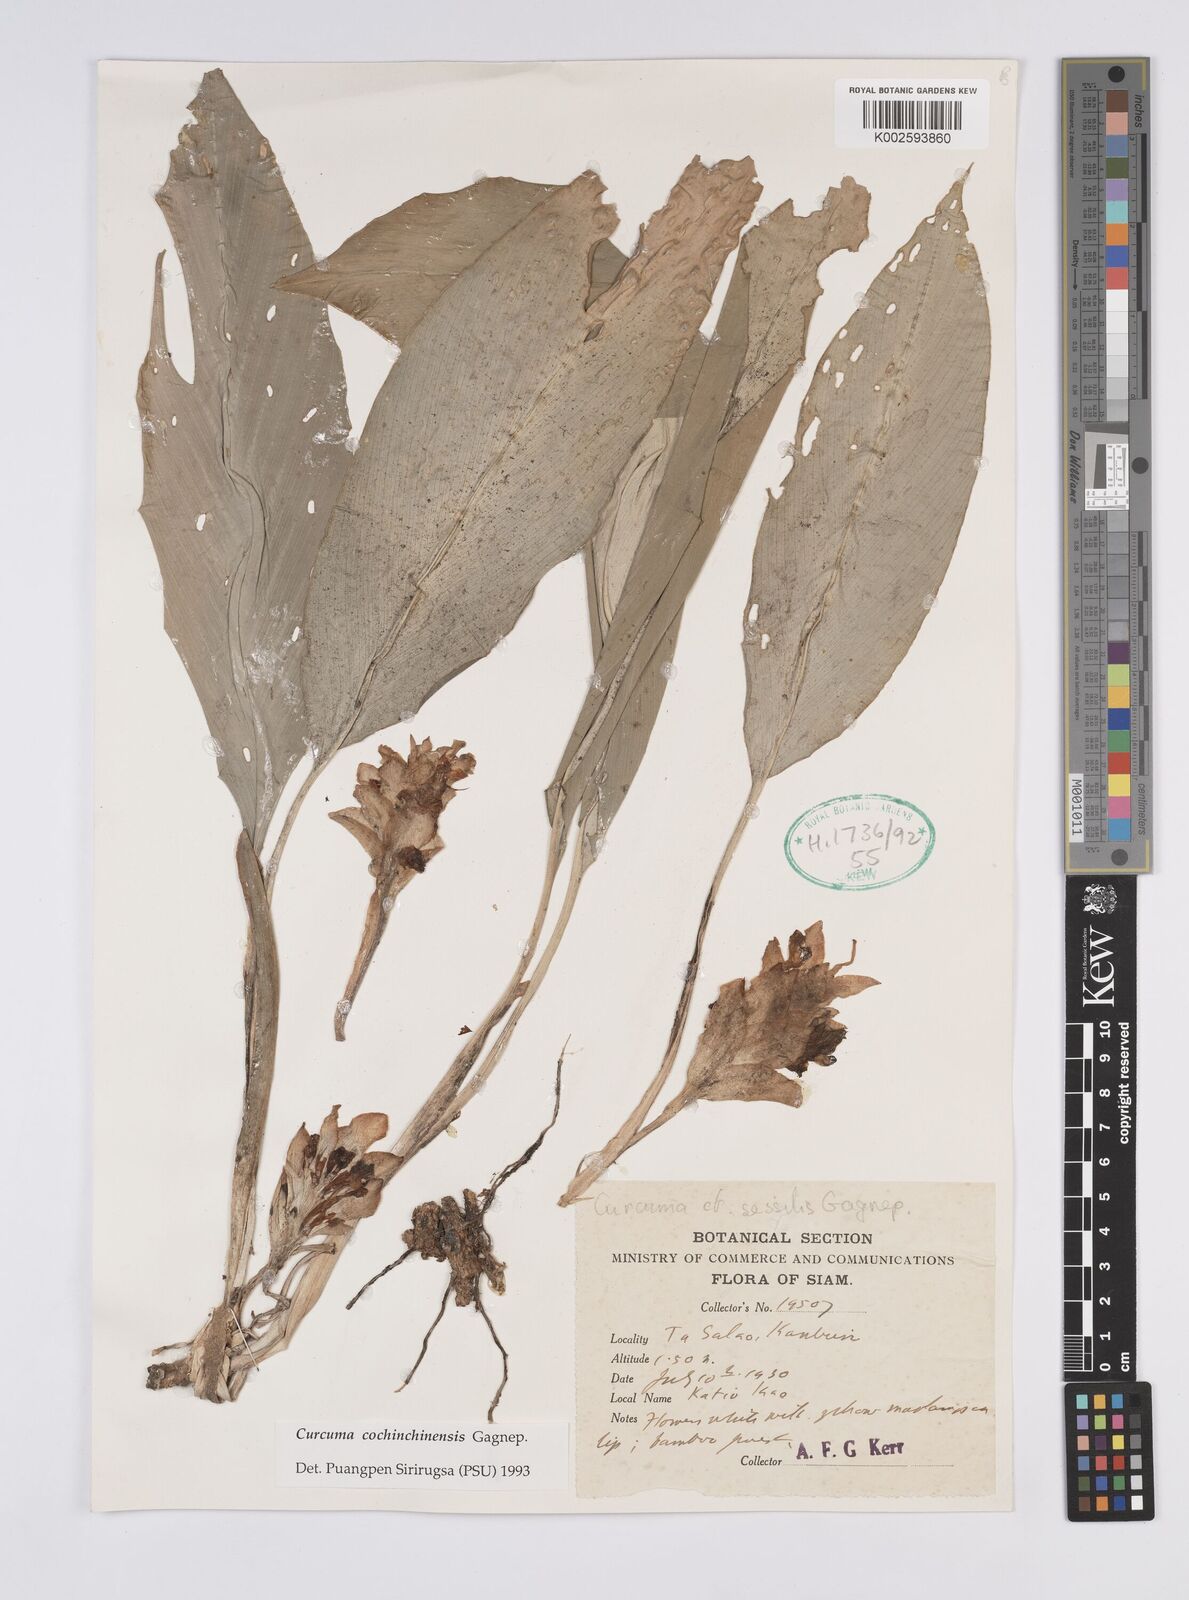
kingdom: Plantae
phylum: Tracheophyta
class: Liliopsida
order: Zingiberales
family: Zingiberaceae
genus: Curcuma
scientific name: Curcuma cochinchinensis
